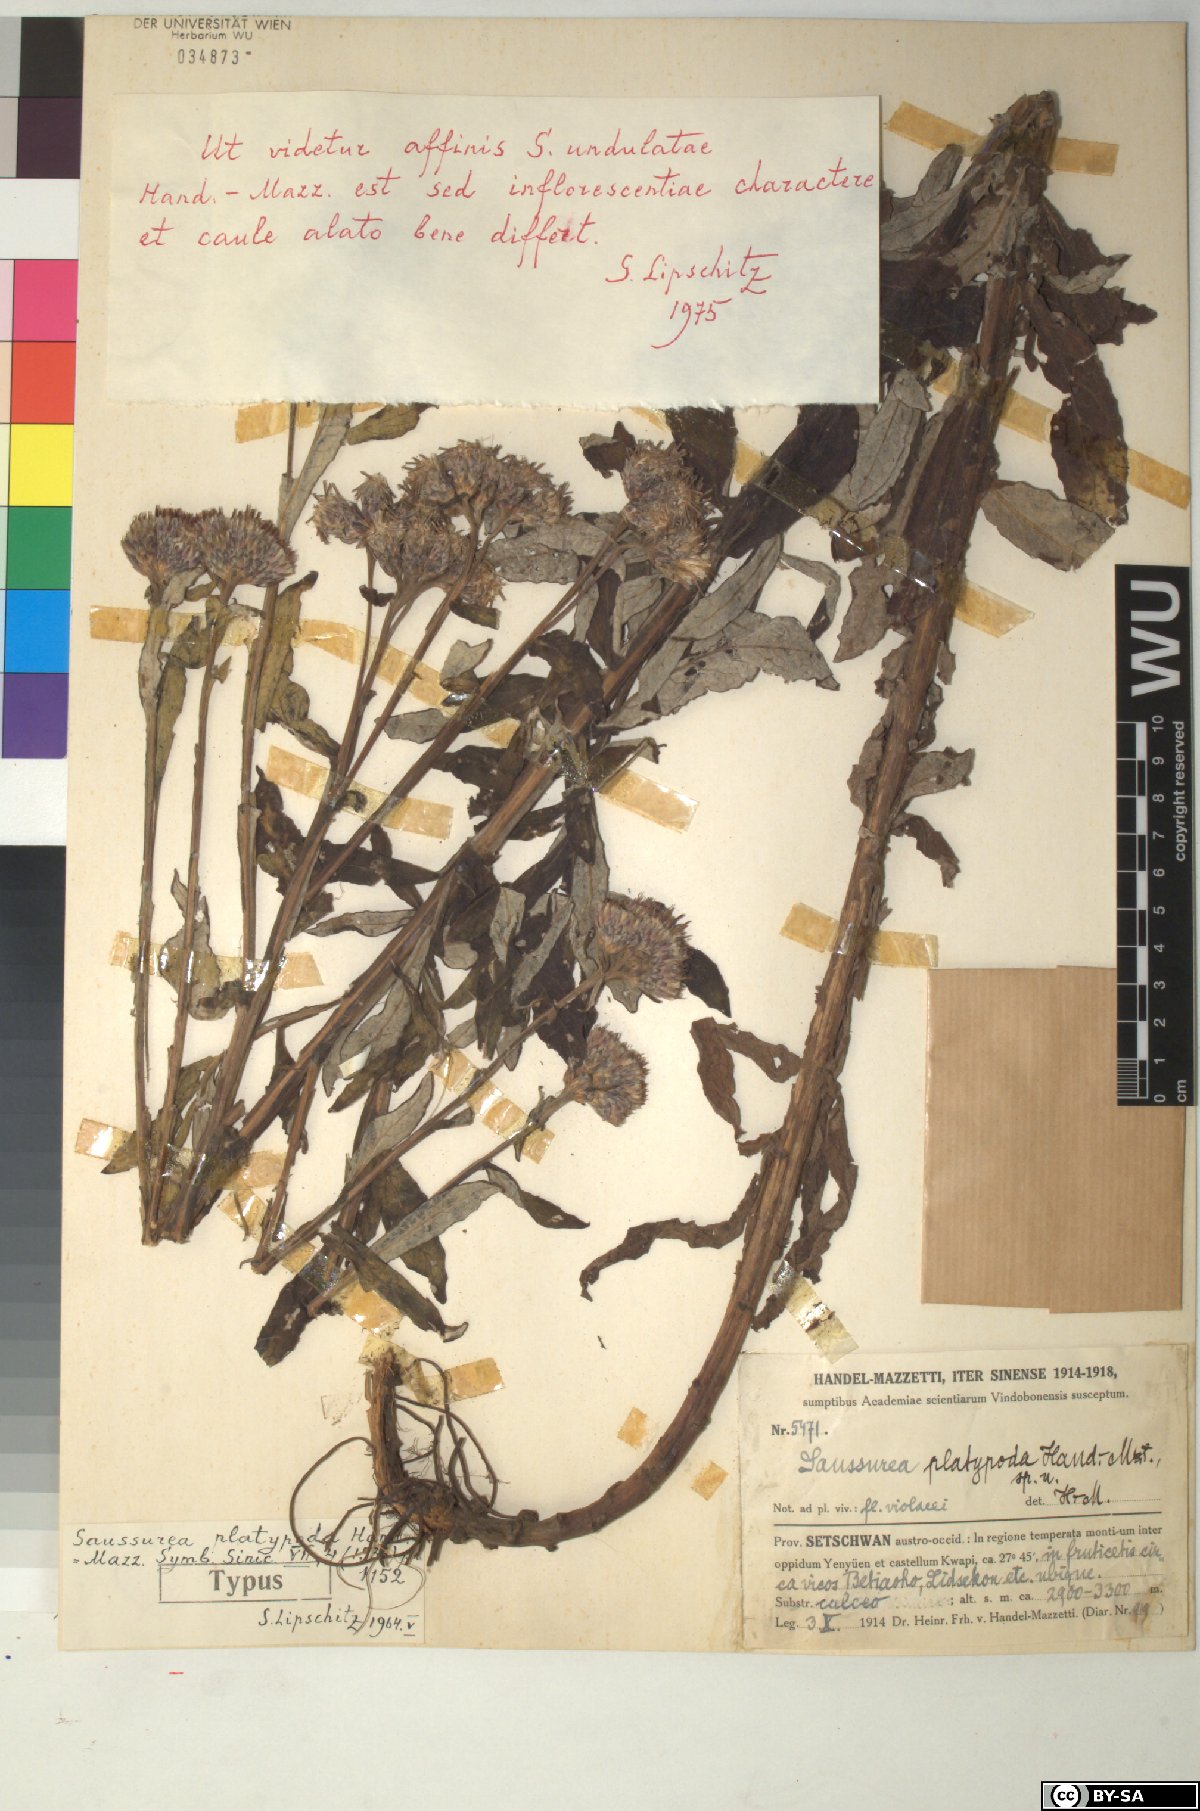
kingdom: Plantae
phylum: Tracheophyta
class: Magnoliopsida
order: Asterales
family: Asteraceae
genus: Saussurea
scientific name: Saussurea platypoda
